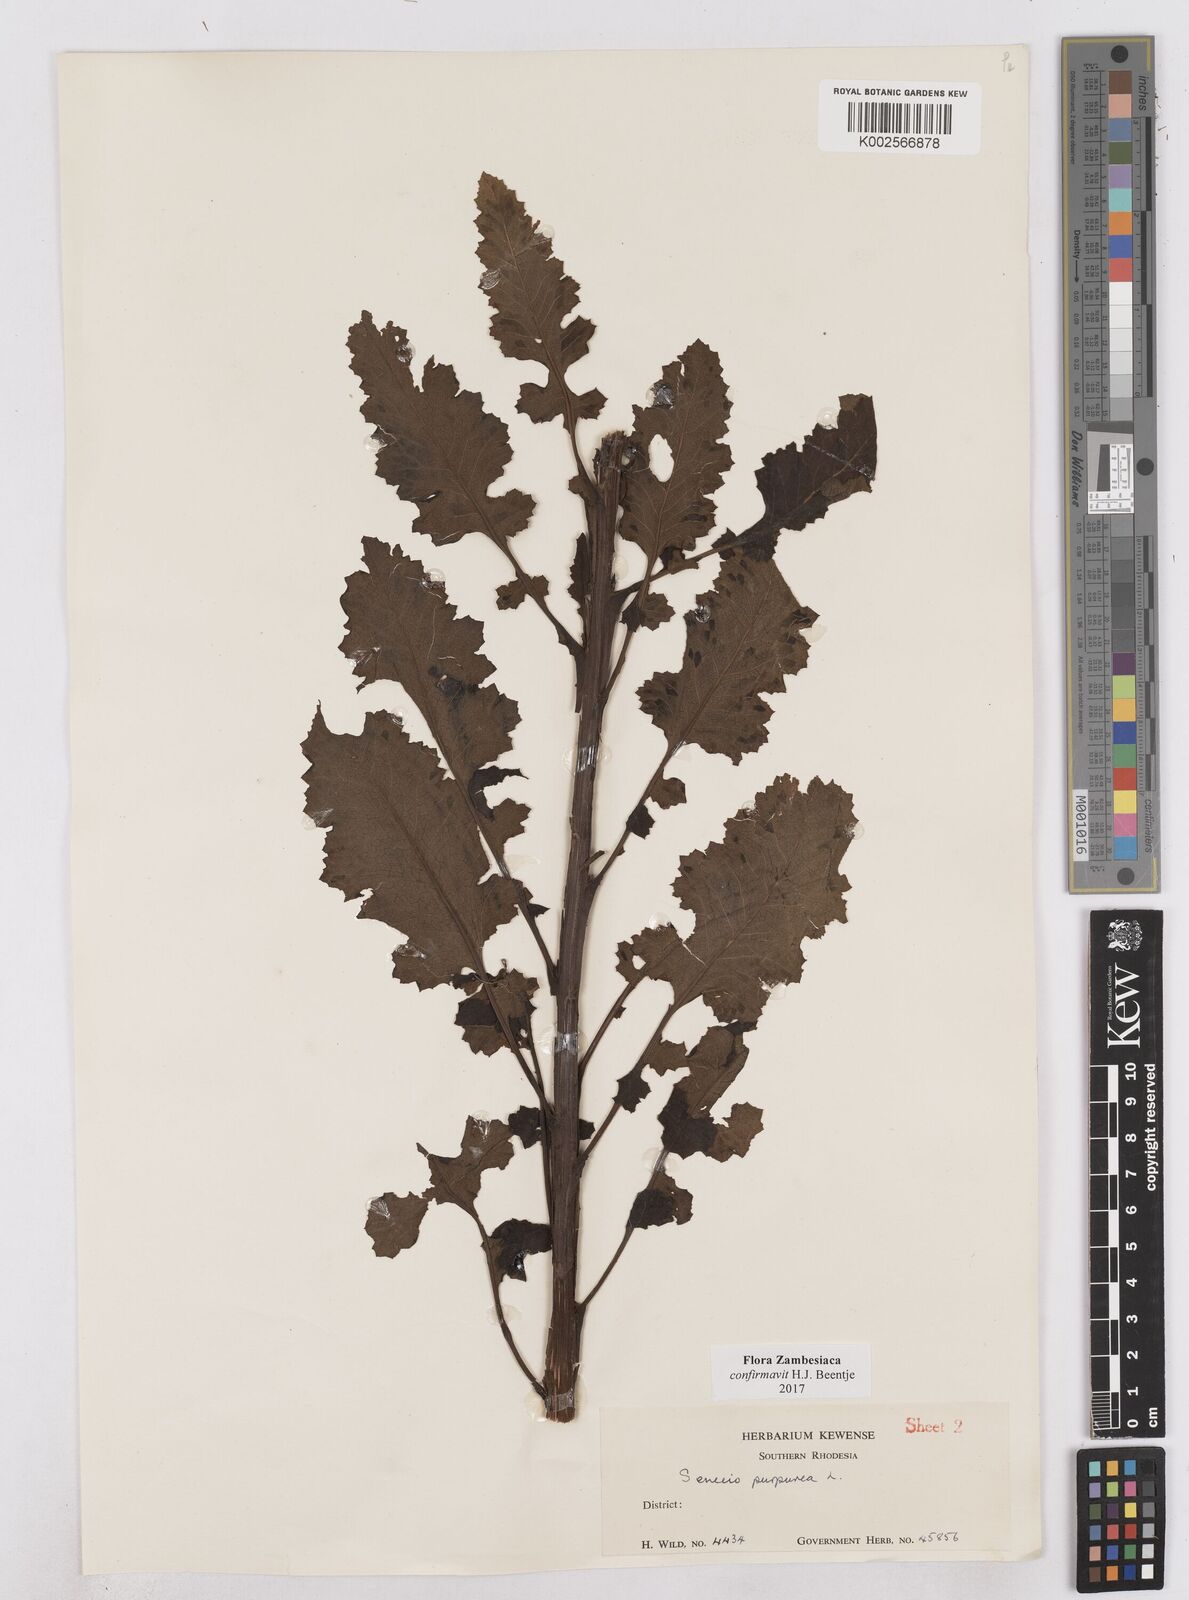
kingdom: Plantae
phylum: Tracheophyta
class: Magnoliopsida
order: Asterales
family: Asteraceae
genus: Senecio
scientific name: Senecio purpureus
